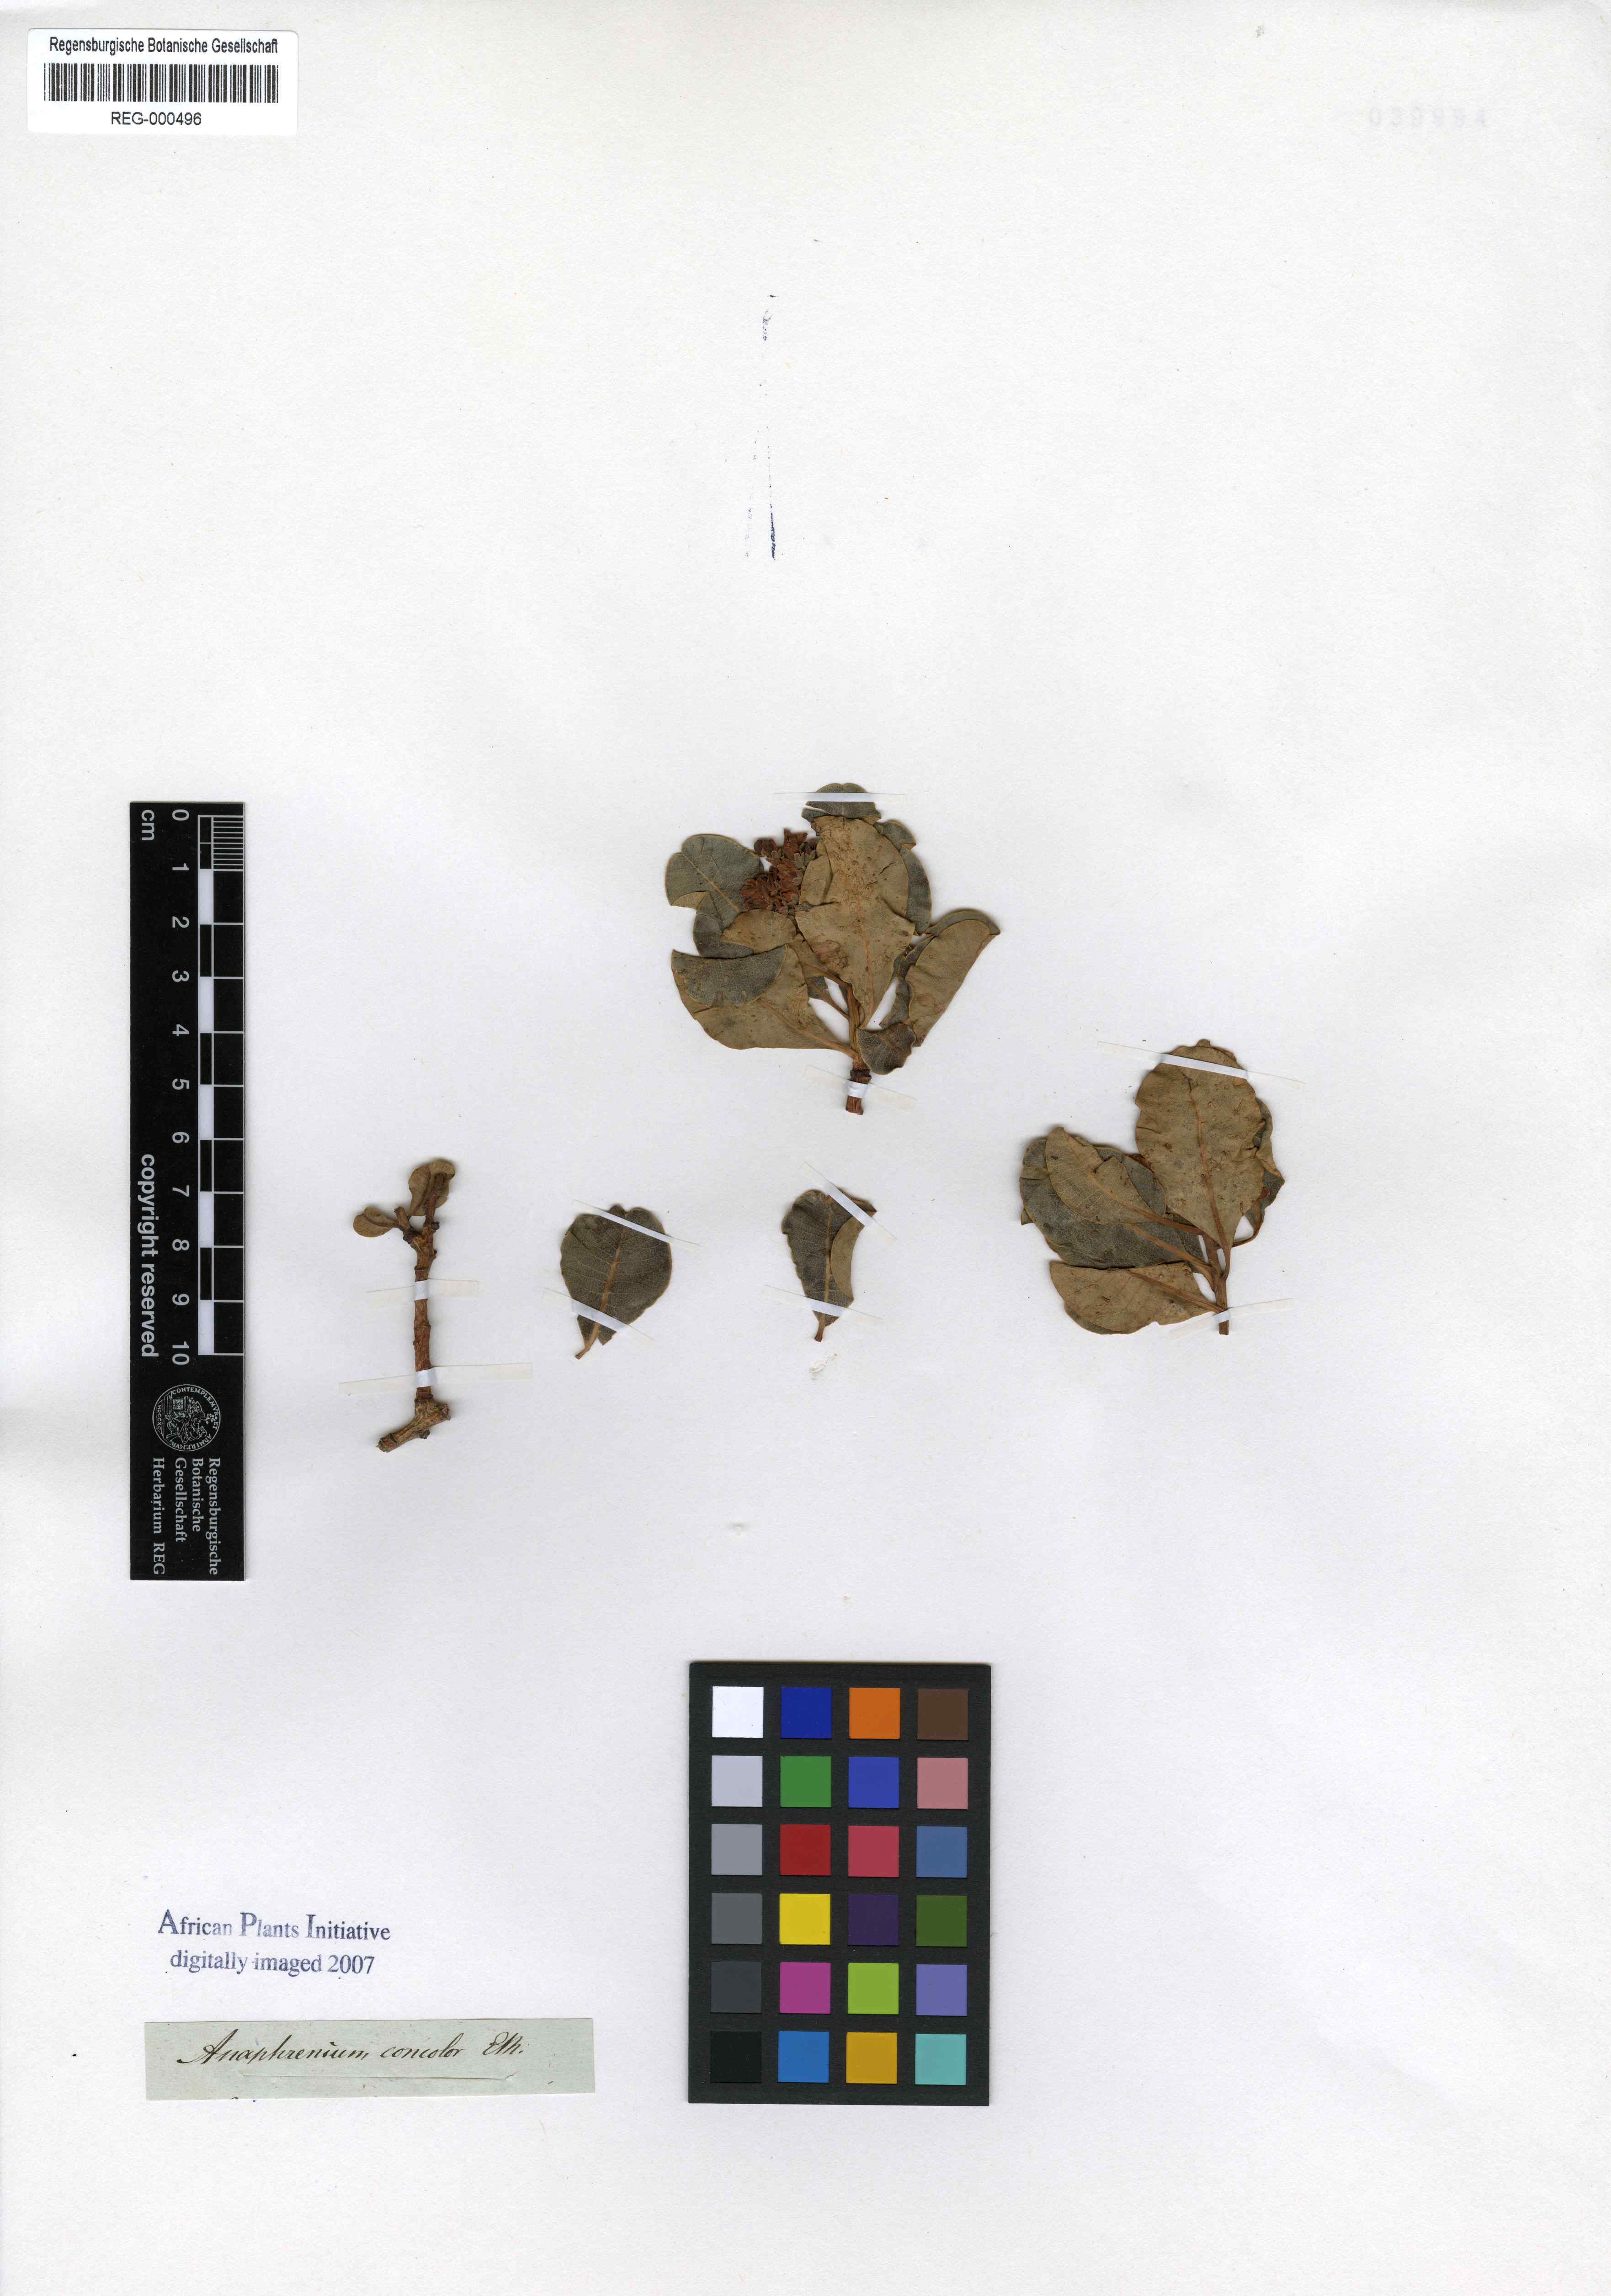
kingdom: Plantae
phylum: Tracheophyta
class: Magnoliopsida
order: Sapindales
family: Anacardiaceae
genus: Ozoroa
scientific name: Ozoroa concolor
